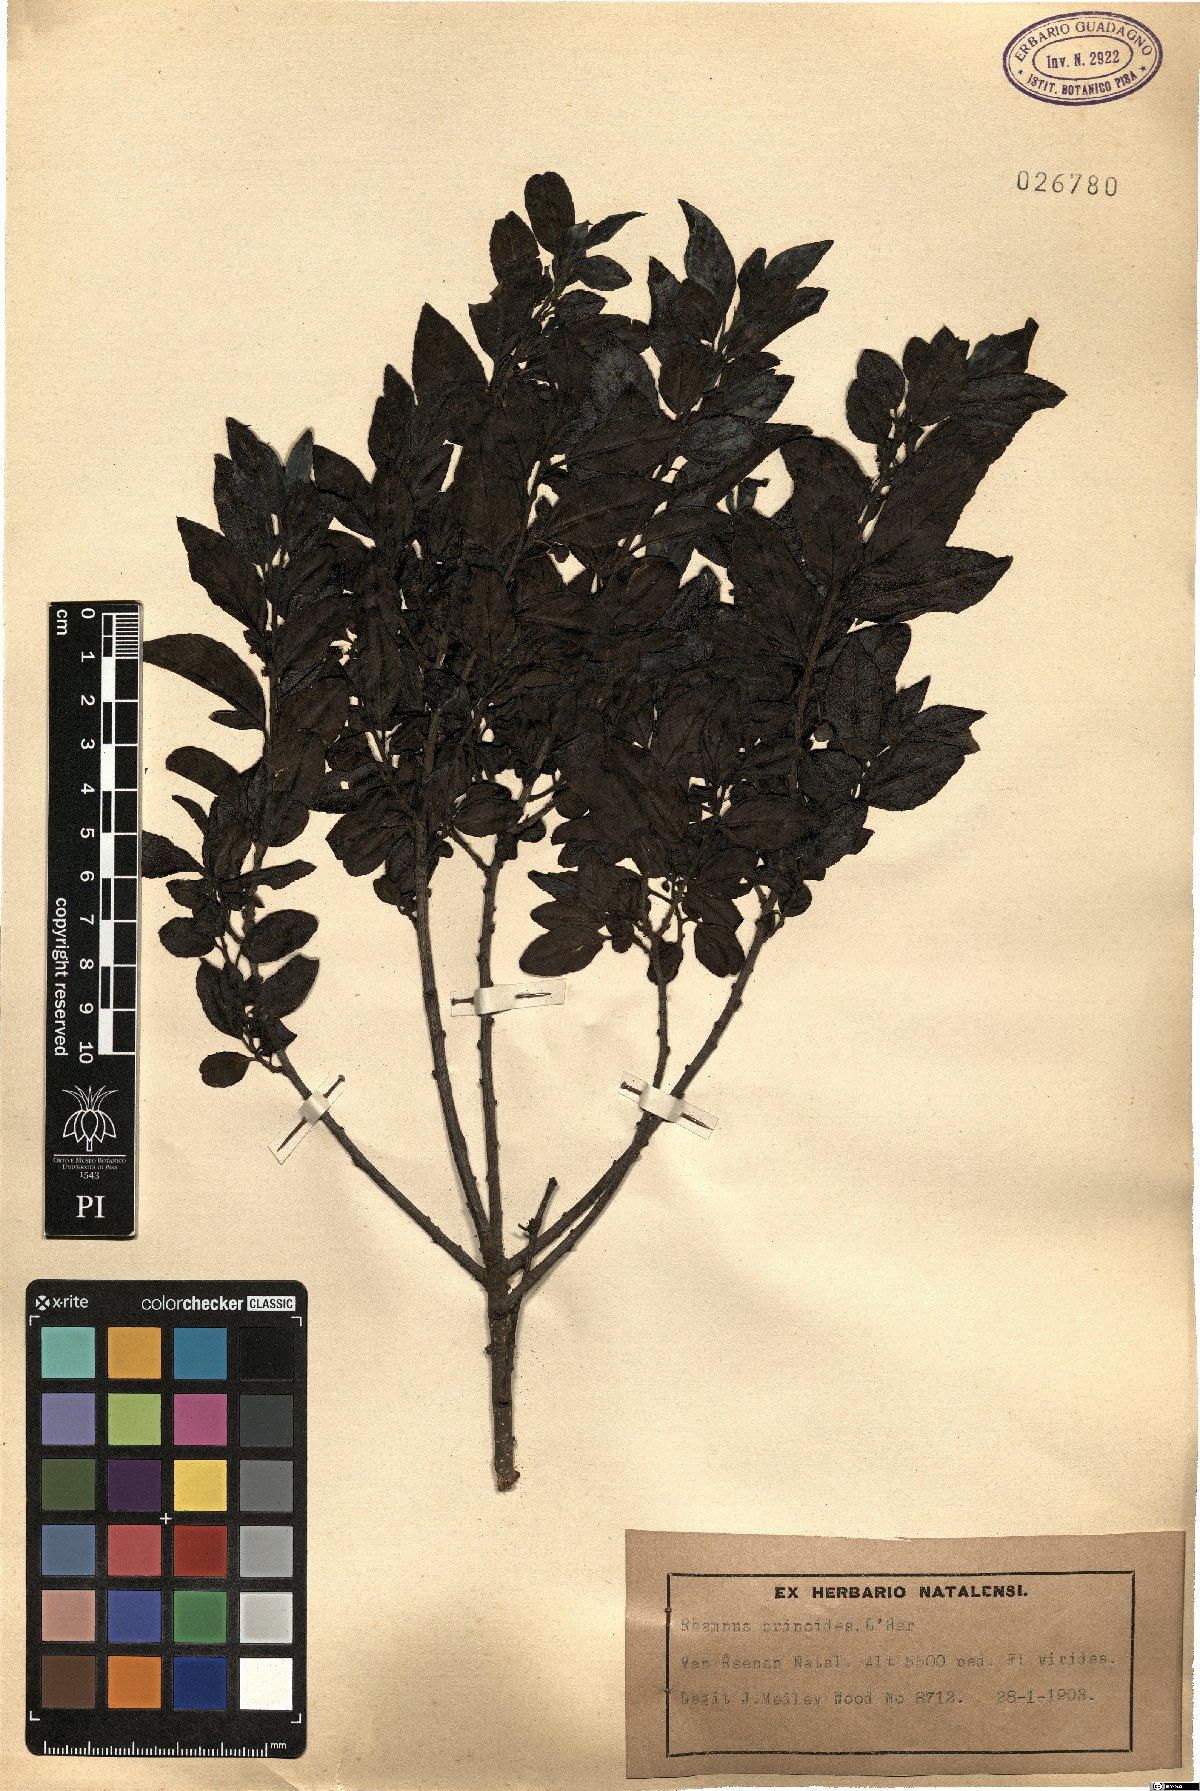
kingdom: Plantae
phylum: Tracheophyta
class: Magnoliopsida
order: Rosales
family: Rhamnaceae
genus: Rhamnus
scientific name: Rhamnus prinoides
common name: Dogwood
